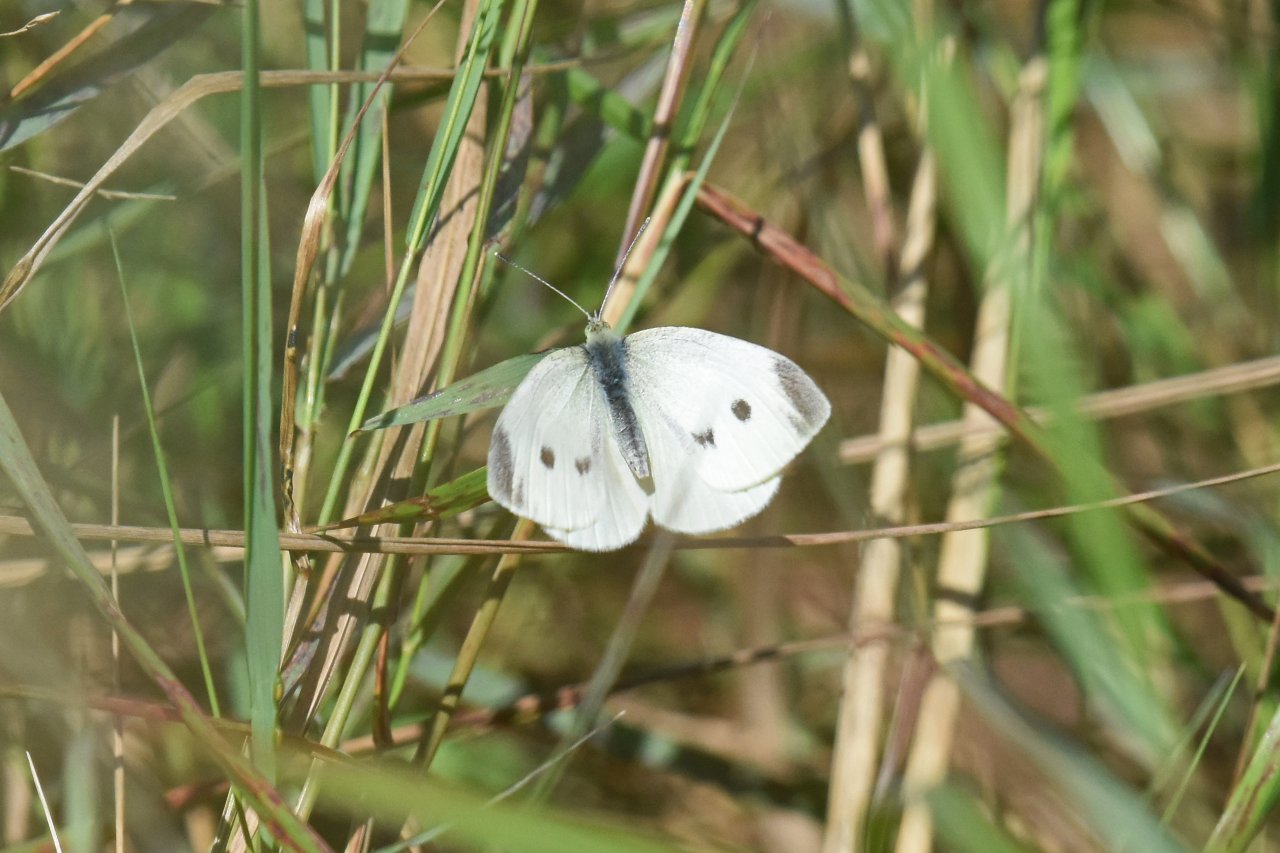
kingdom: Animalia
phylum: Arthropoda
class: Insecta
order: Lepidoptera
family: Pieridae
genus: Pieris
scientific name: Pieris rapae
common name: Cabbage White
